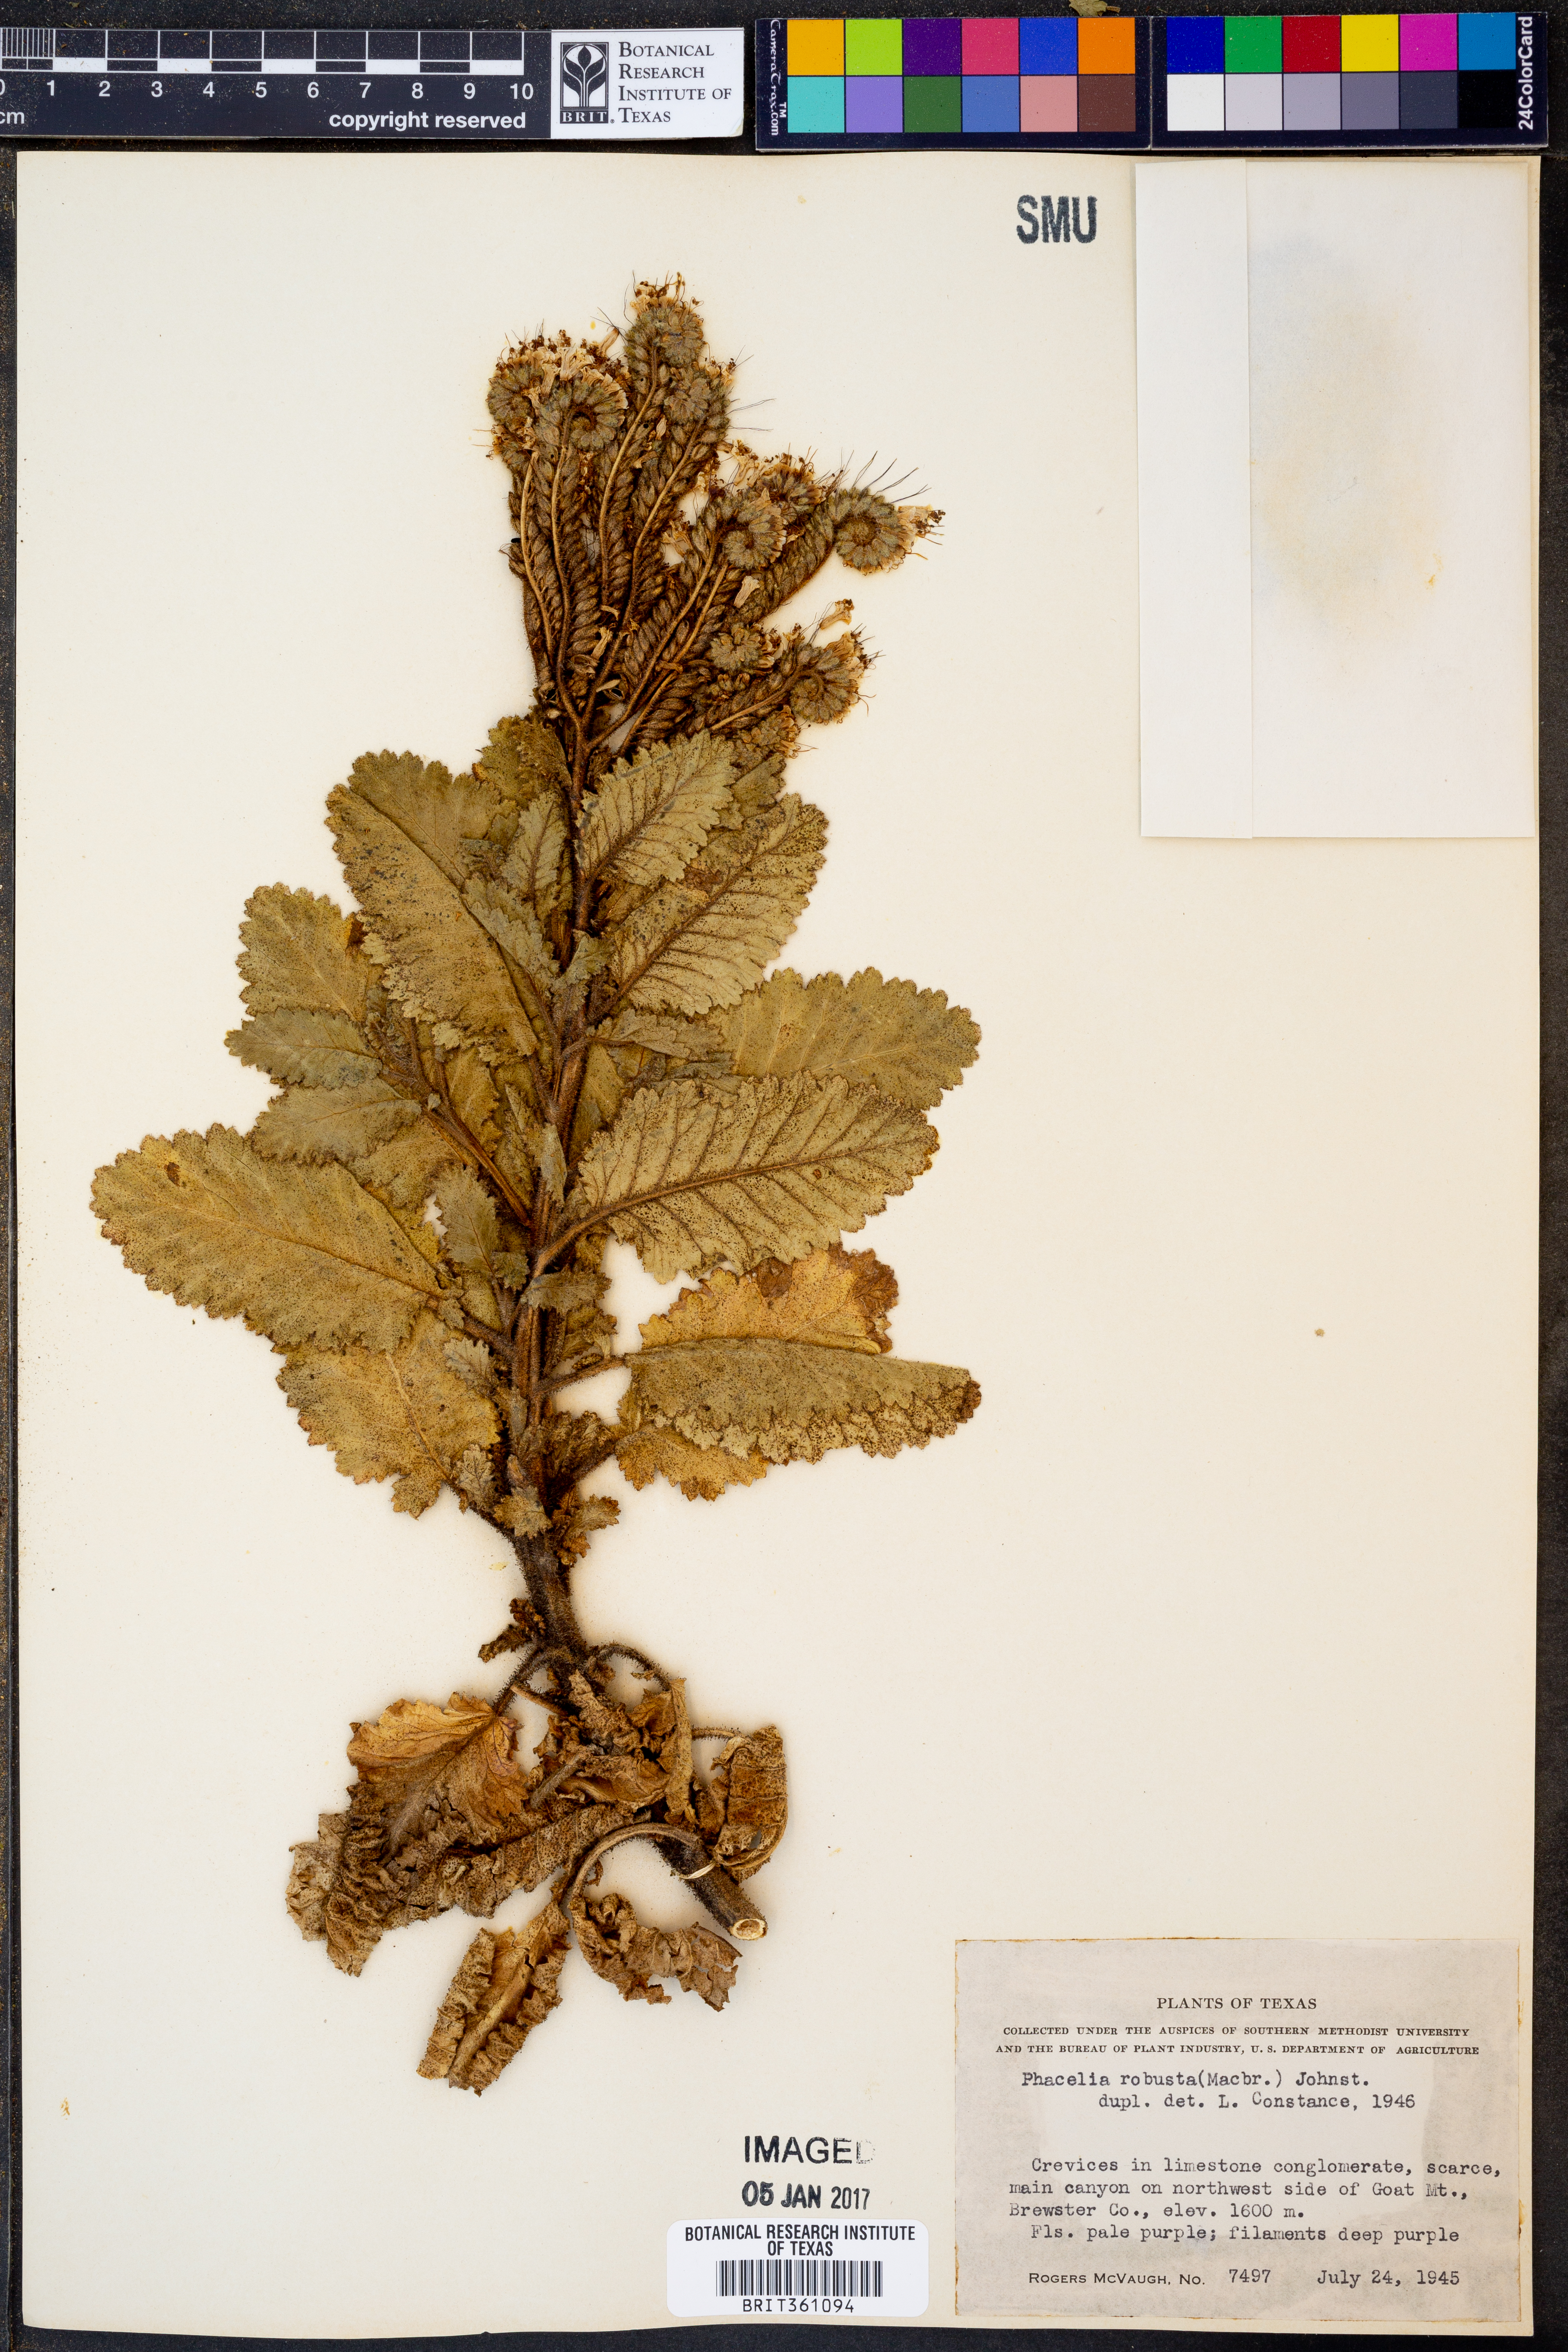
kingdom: Plantae
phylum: Tracheophyta
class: Magnoliopsida
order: Boraginales
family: Hydrophyllaceae
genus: Phacelia
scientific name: Phacelia robusta
